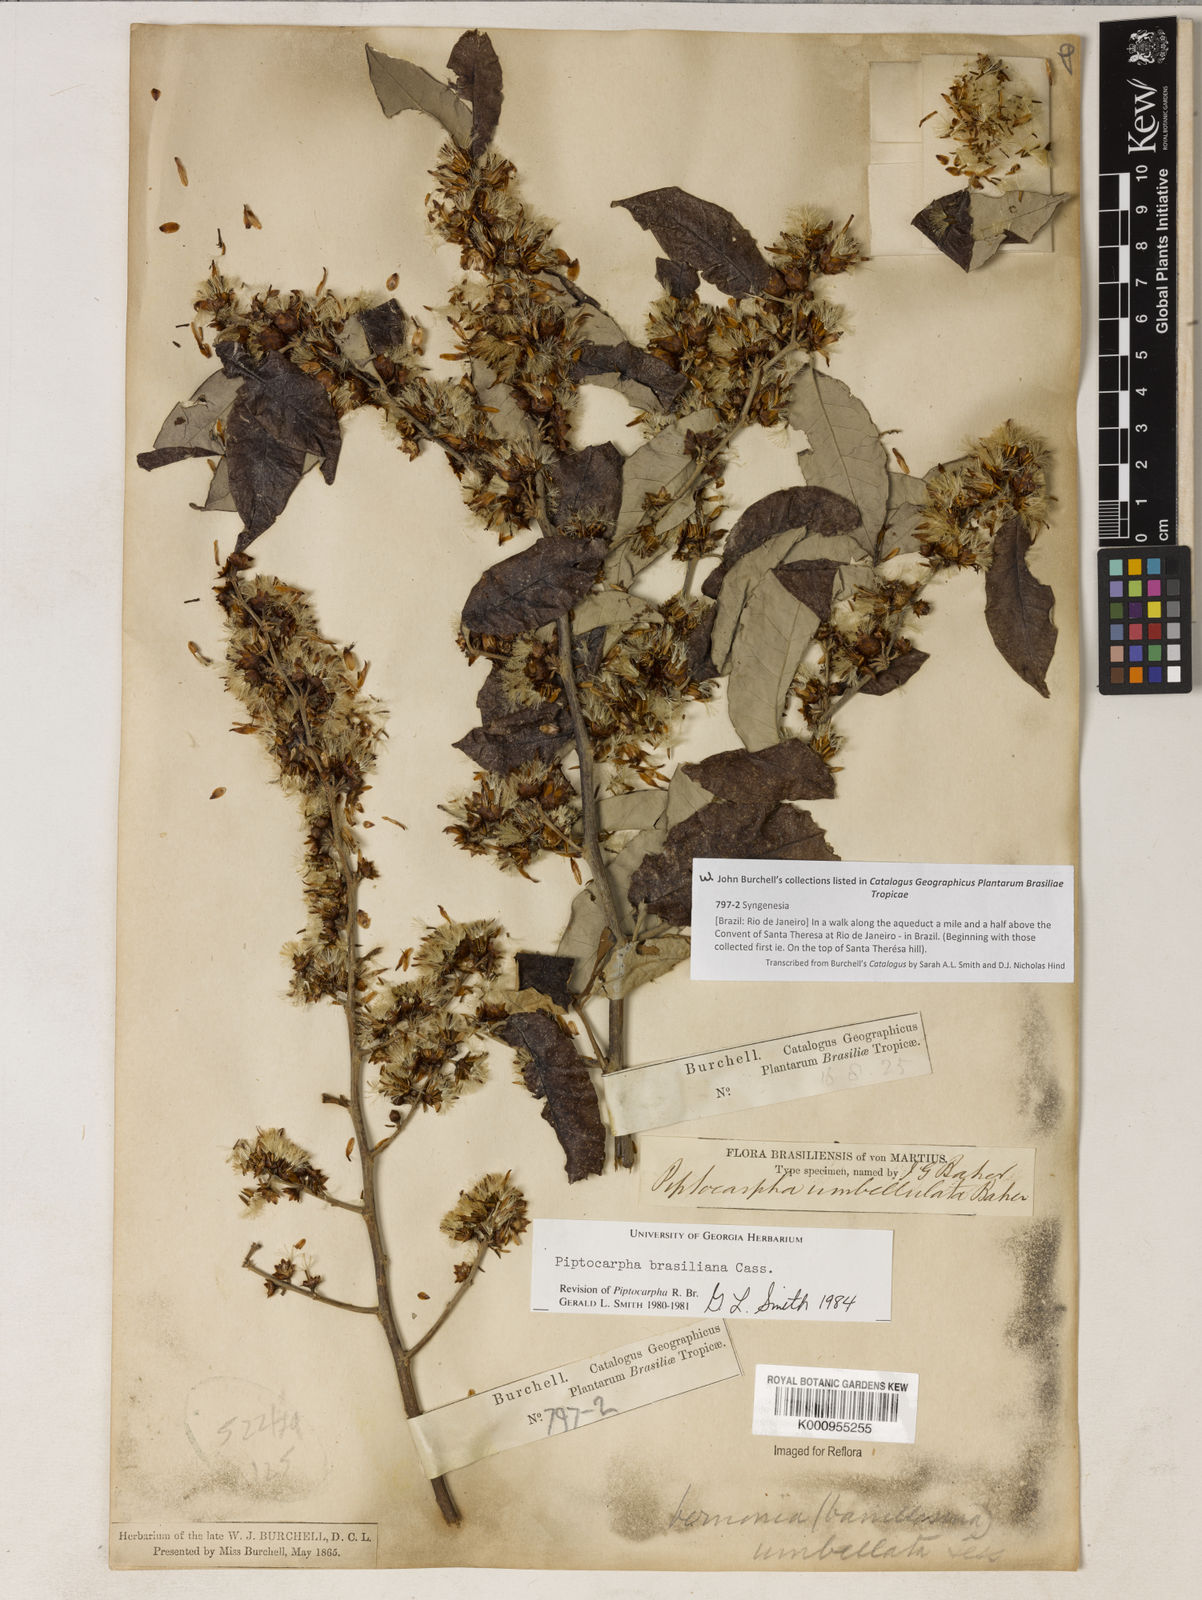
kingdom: Plantae
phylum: Tracheophyta
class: Magnoliopsida
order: Asterales
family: Asteraceae
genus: Piptocarpha
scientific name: Piptocarpha brasiliana
